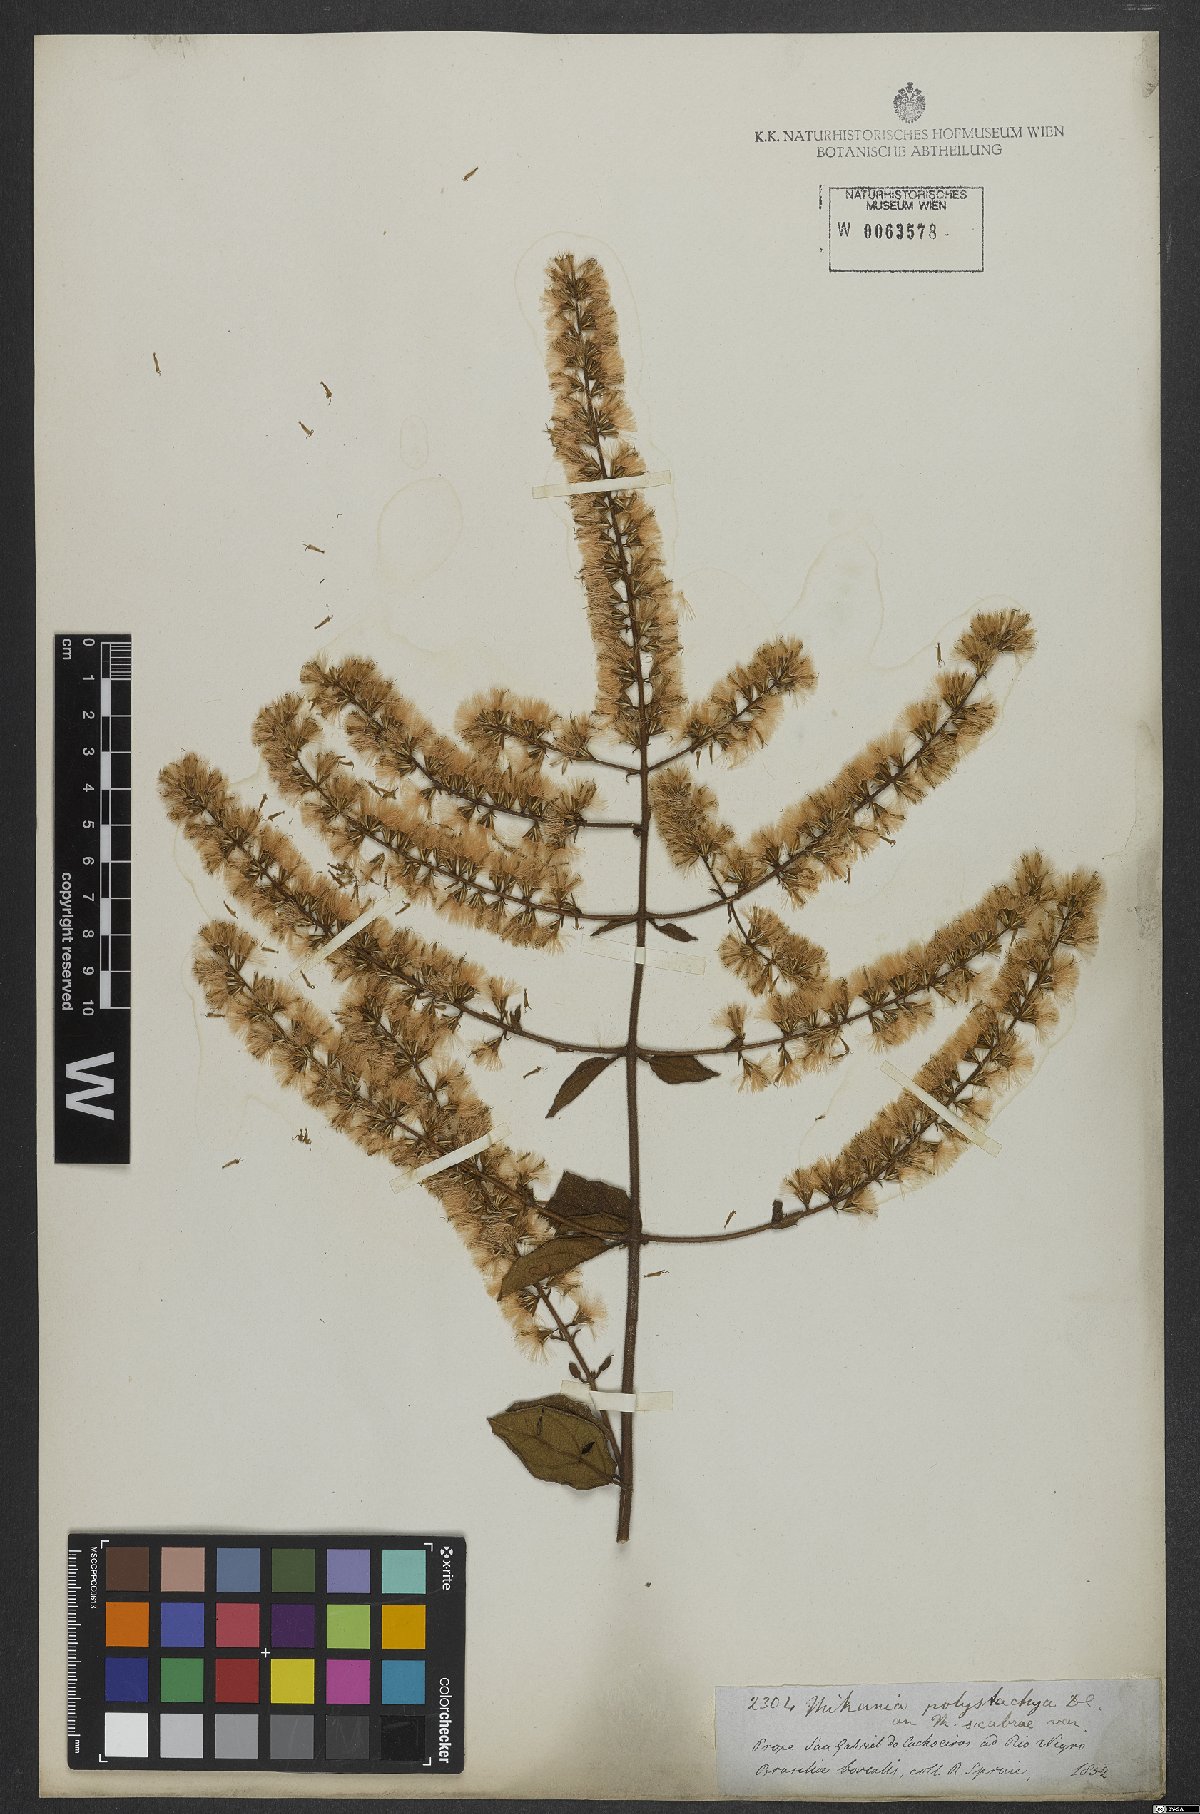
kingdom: Plantae
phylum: Tracheophyta
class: Magnoliopsida
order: Asterales
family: Asteraceae
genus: Mikania
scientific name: Mikania psilostachya
